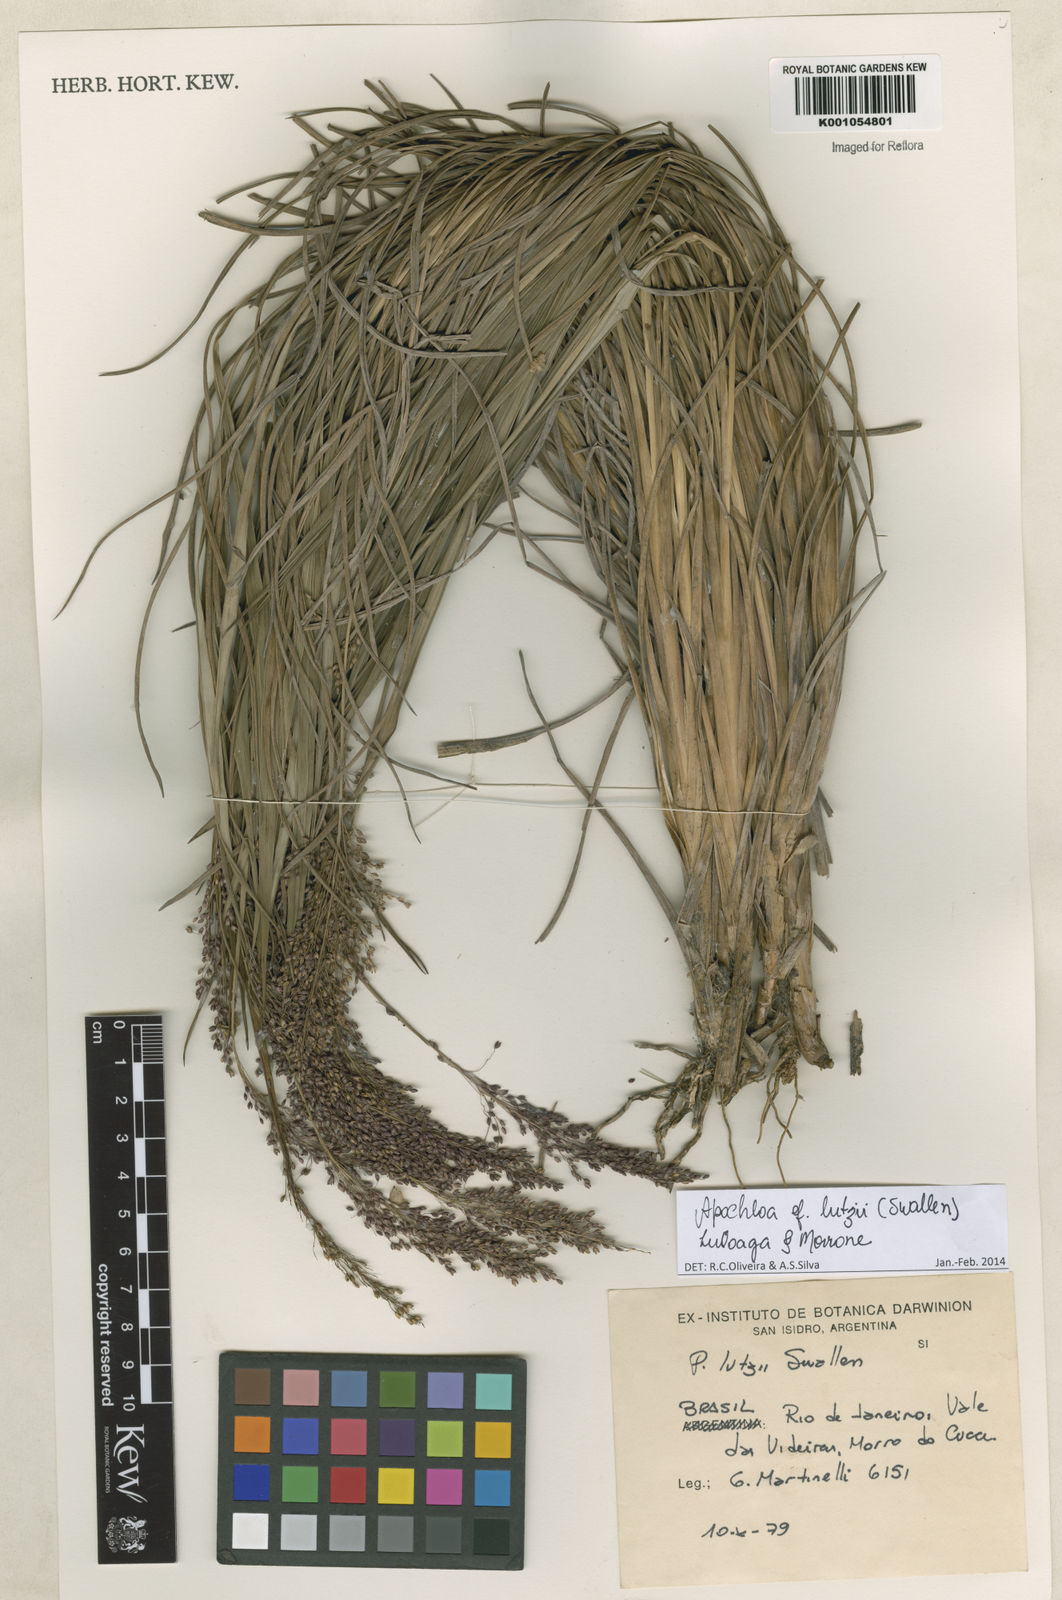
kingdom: Plantae
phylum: Tracheophyta
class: Liliopsida
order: Poales
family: Poaceae
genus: Apochloa
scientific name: Apochloa lutzii
